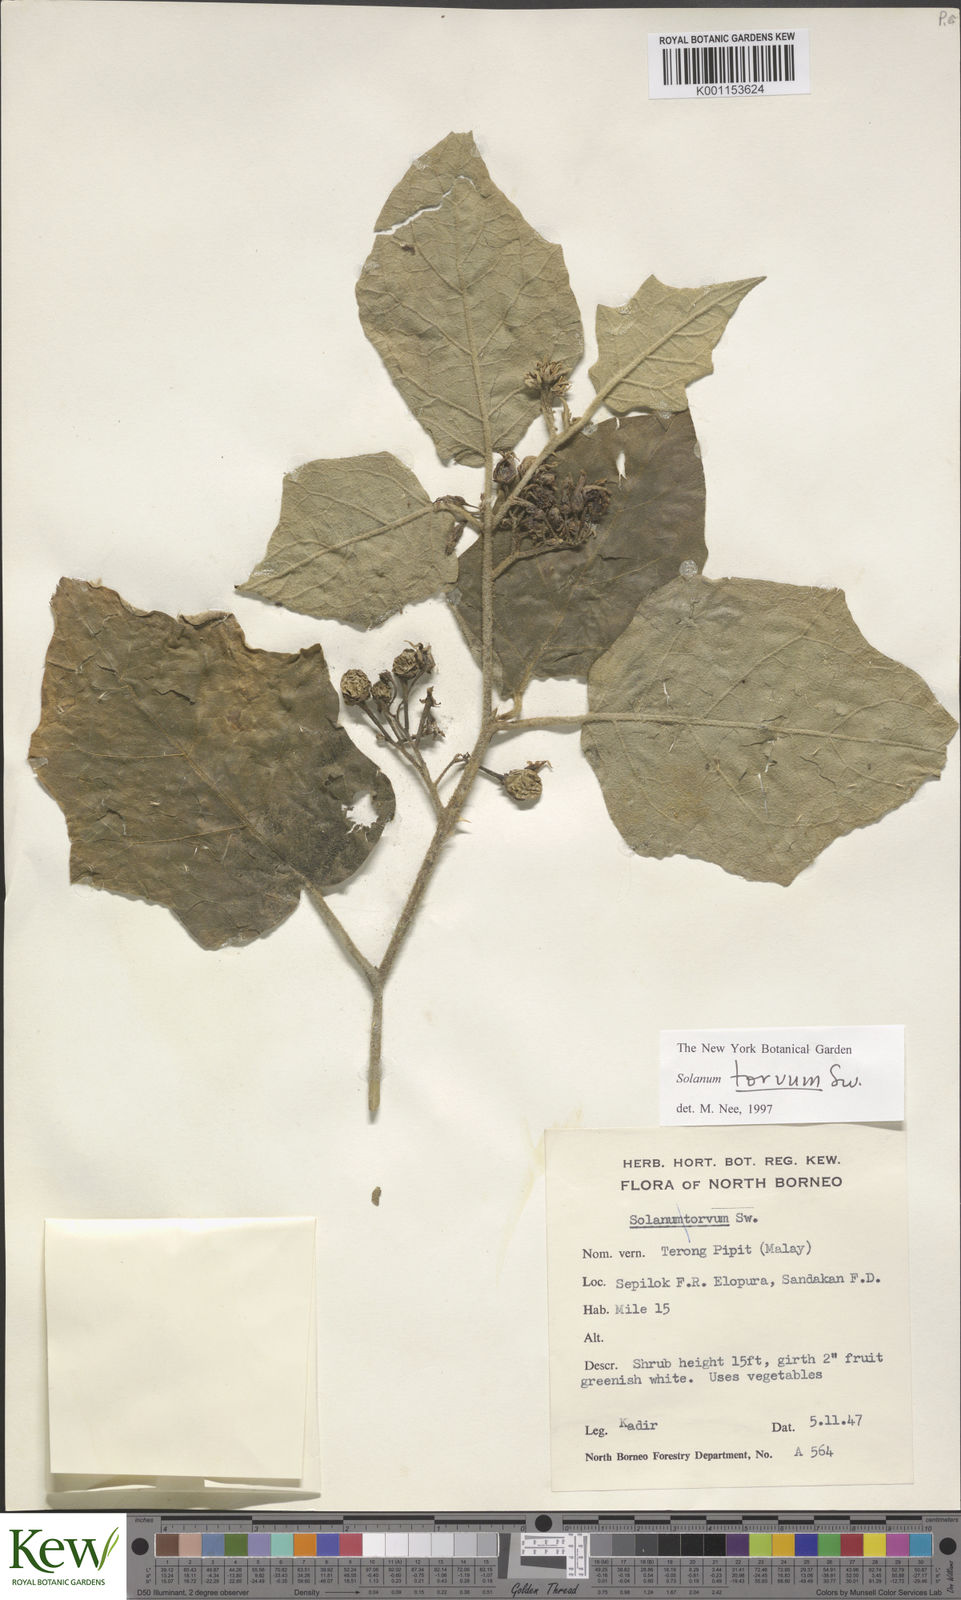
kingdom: Plantae
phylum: Tracheophyta
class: Magnoliopsida
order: Solanales
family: Solanaceae
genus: Solanum
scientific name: Solanum torvum
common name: Turkey berry
